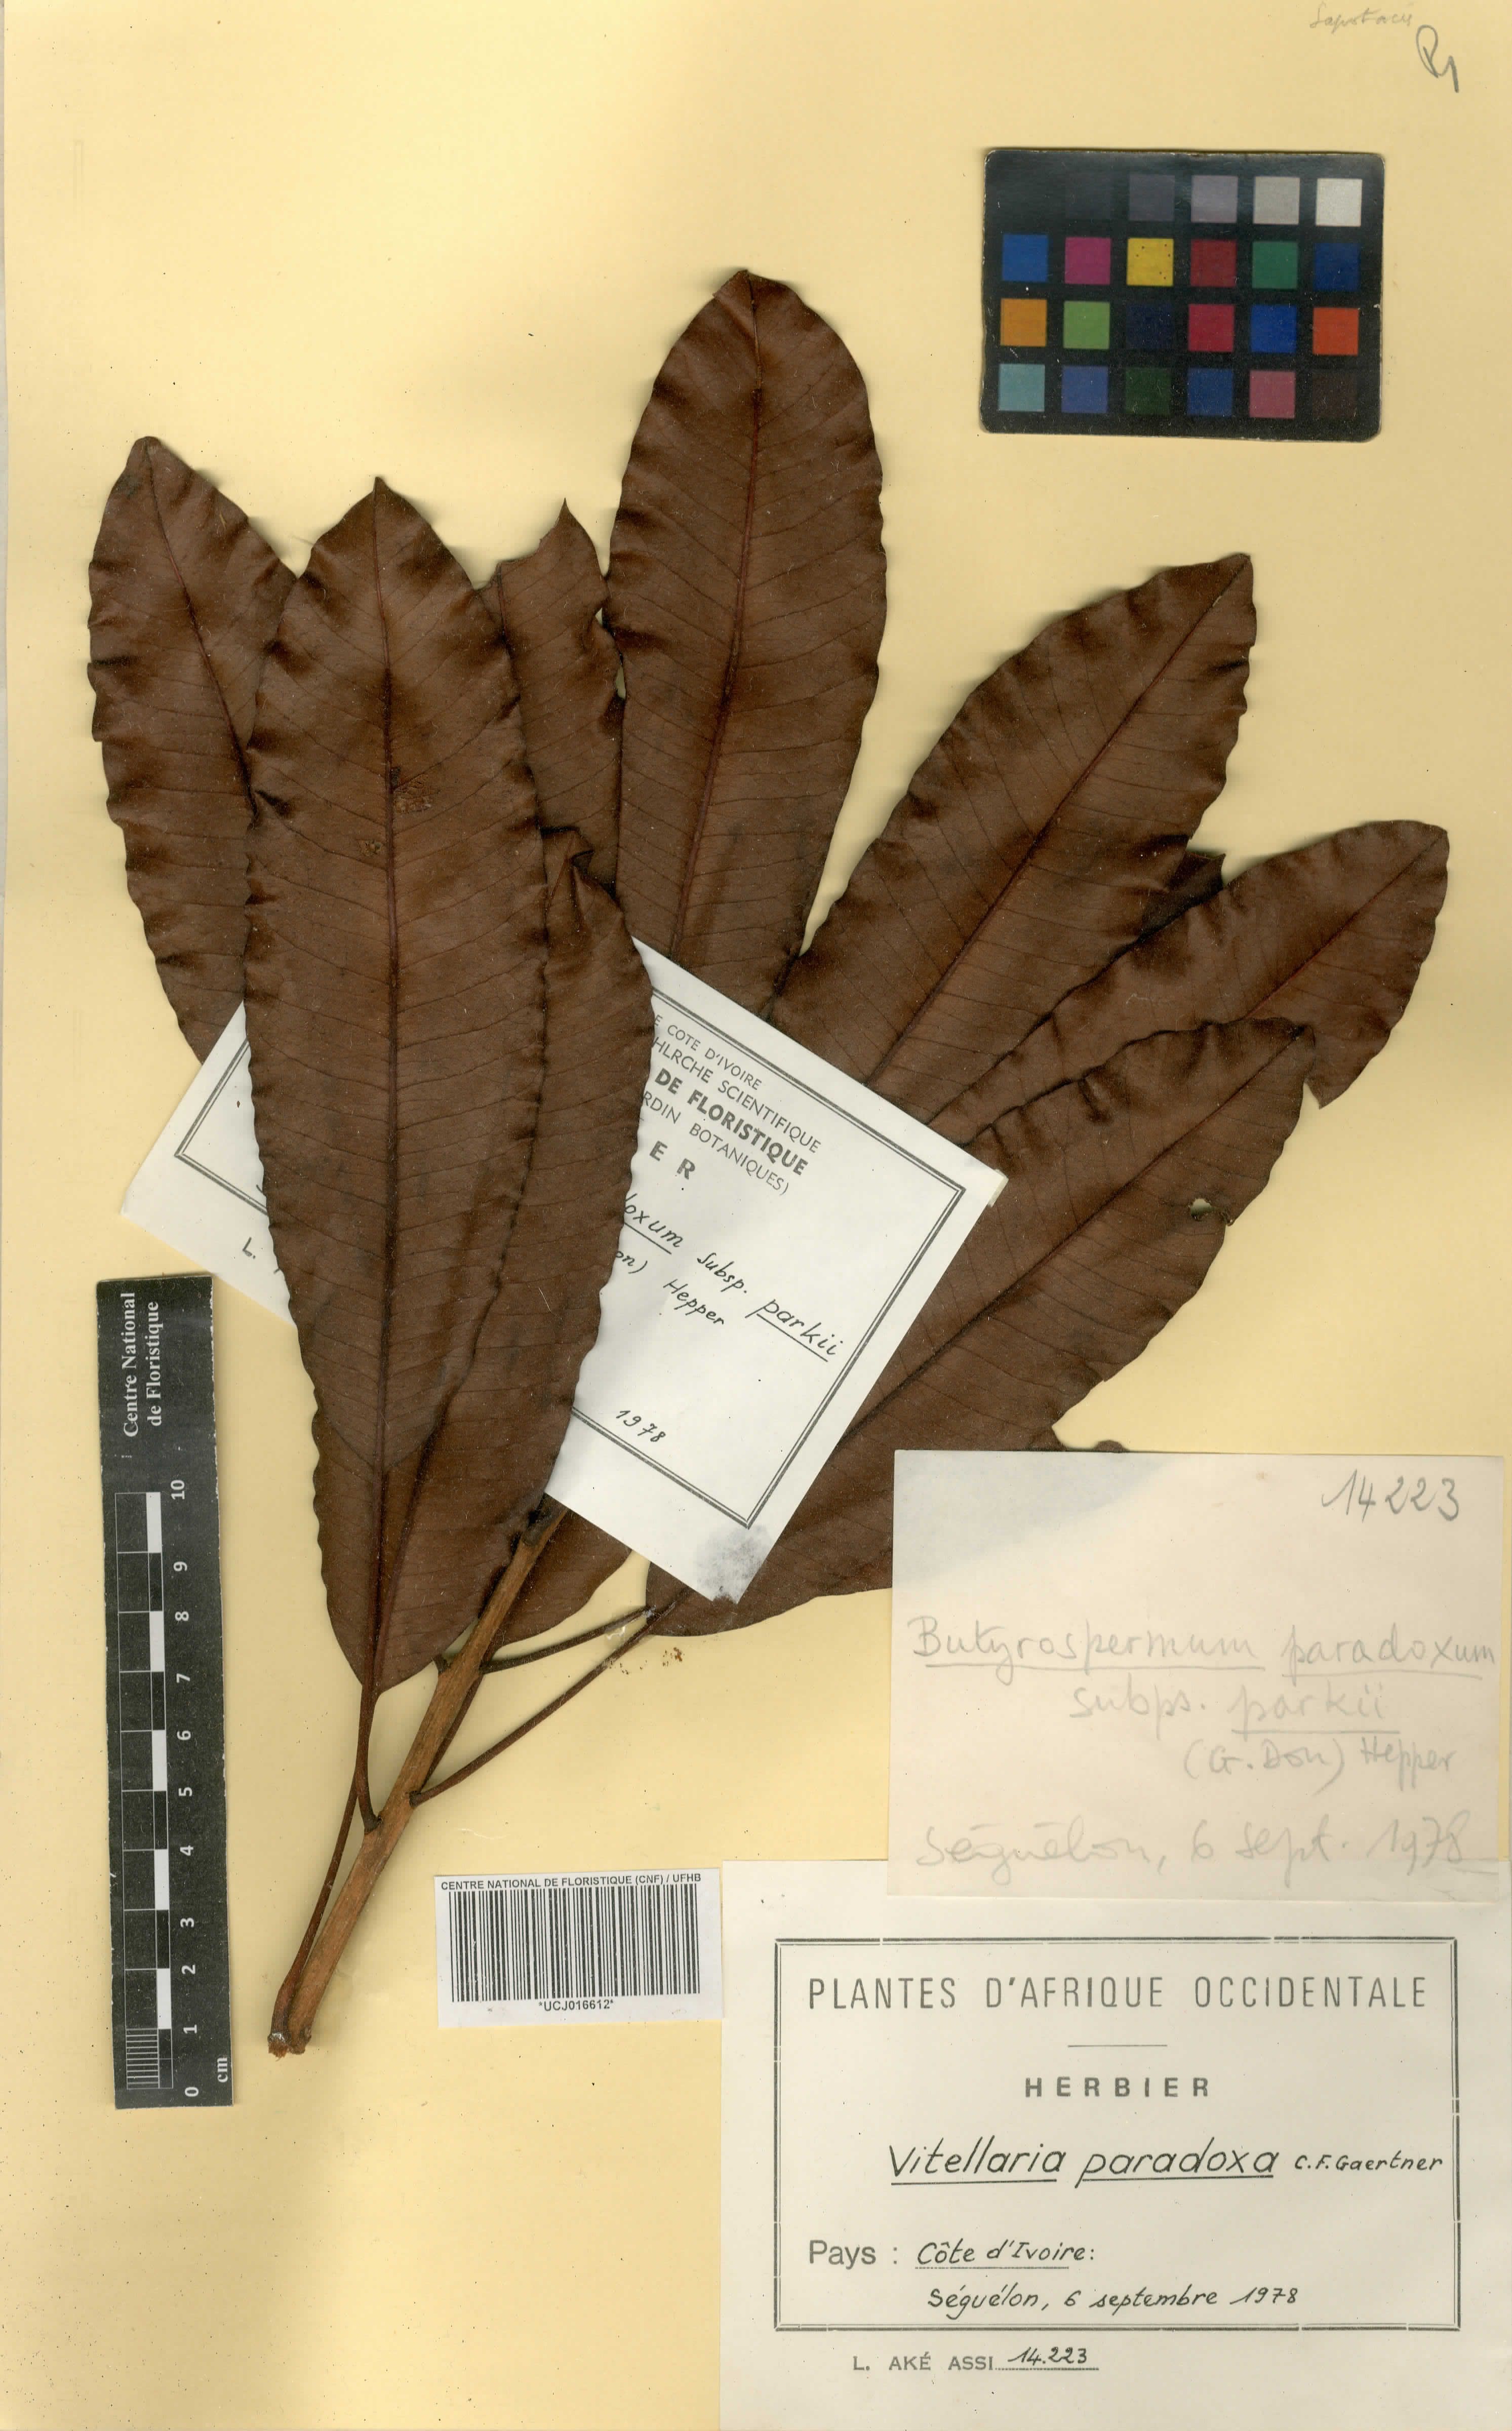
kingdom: Plantae
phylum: Tracheophyta
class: Magnoliopsida
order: Ericales
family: Sapotaceae
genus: Vitellaria
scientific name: Vitellaria paradoxa
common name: Shea butter tree
